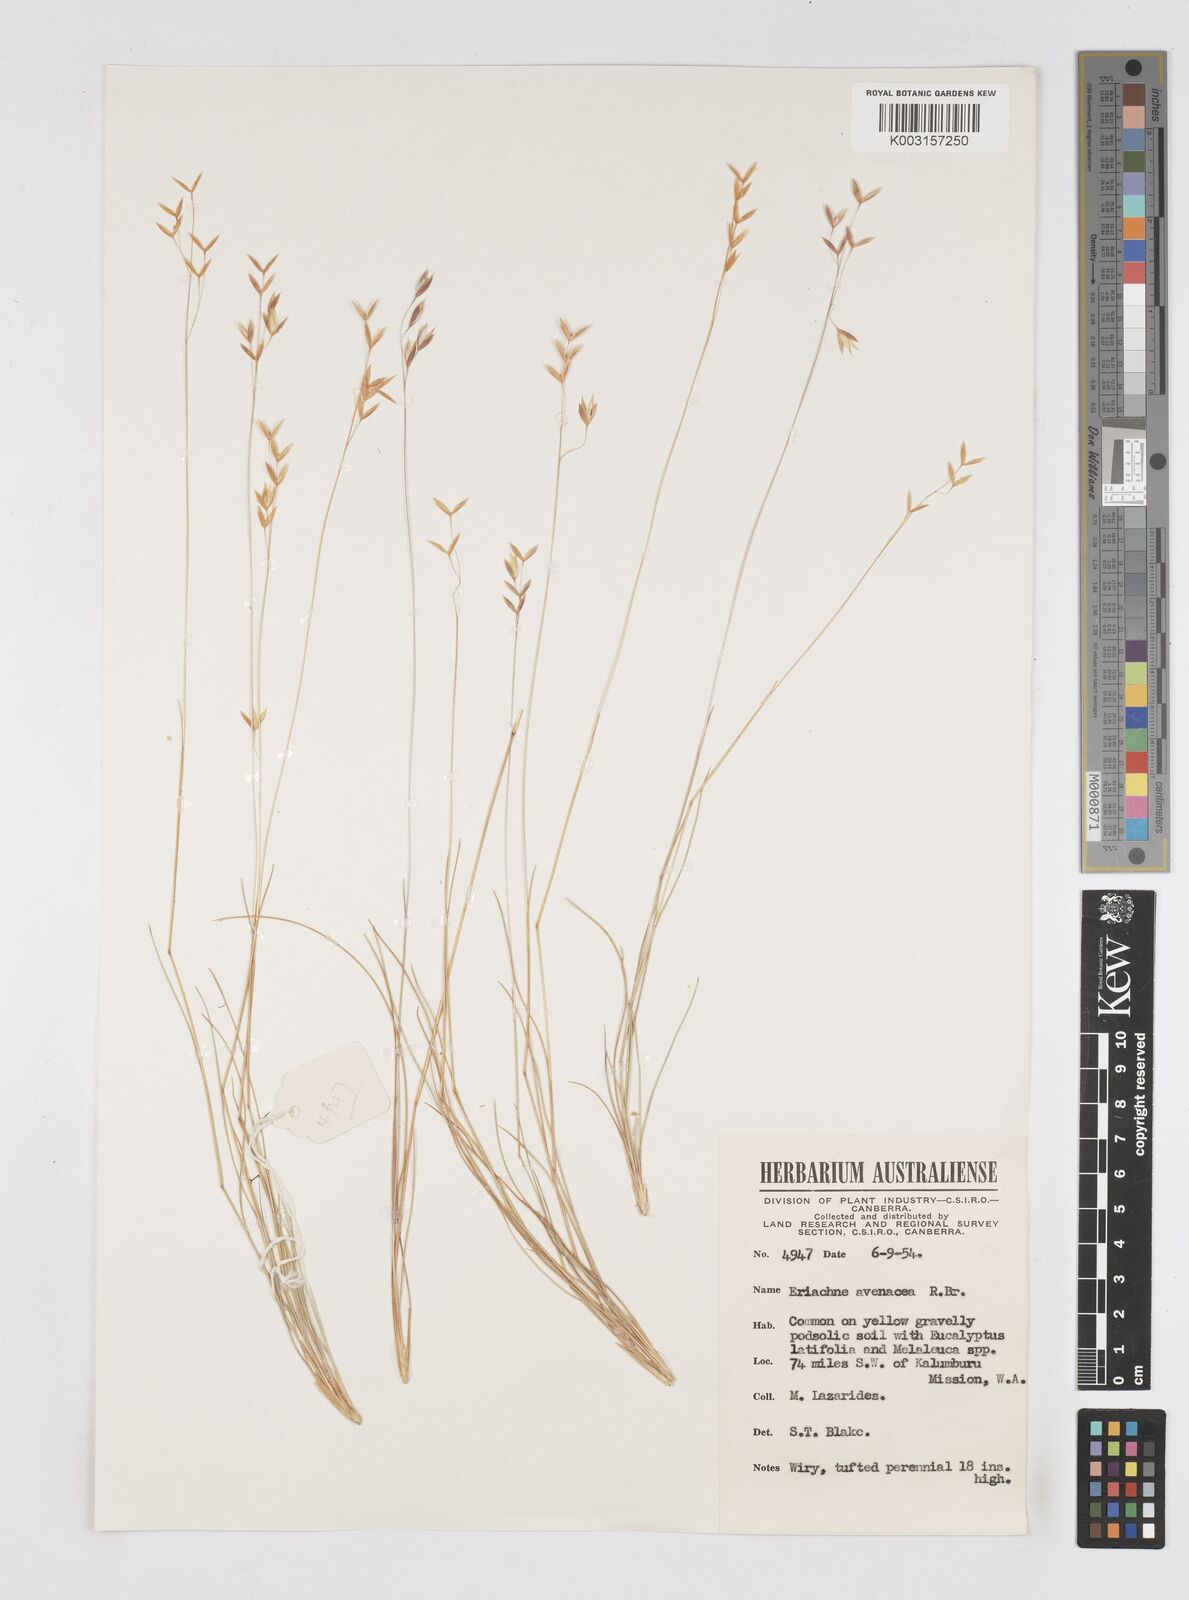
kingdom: Plantae
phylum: Tracheophyta
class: Liliopsida
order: Poales
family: Poaceae
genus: Eriachne
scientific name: Eriachne avenacea
